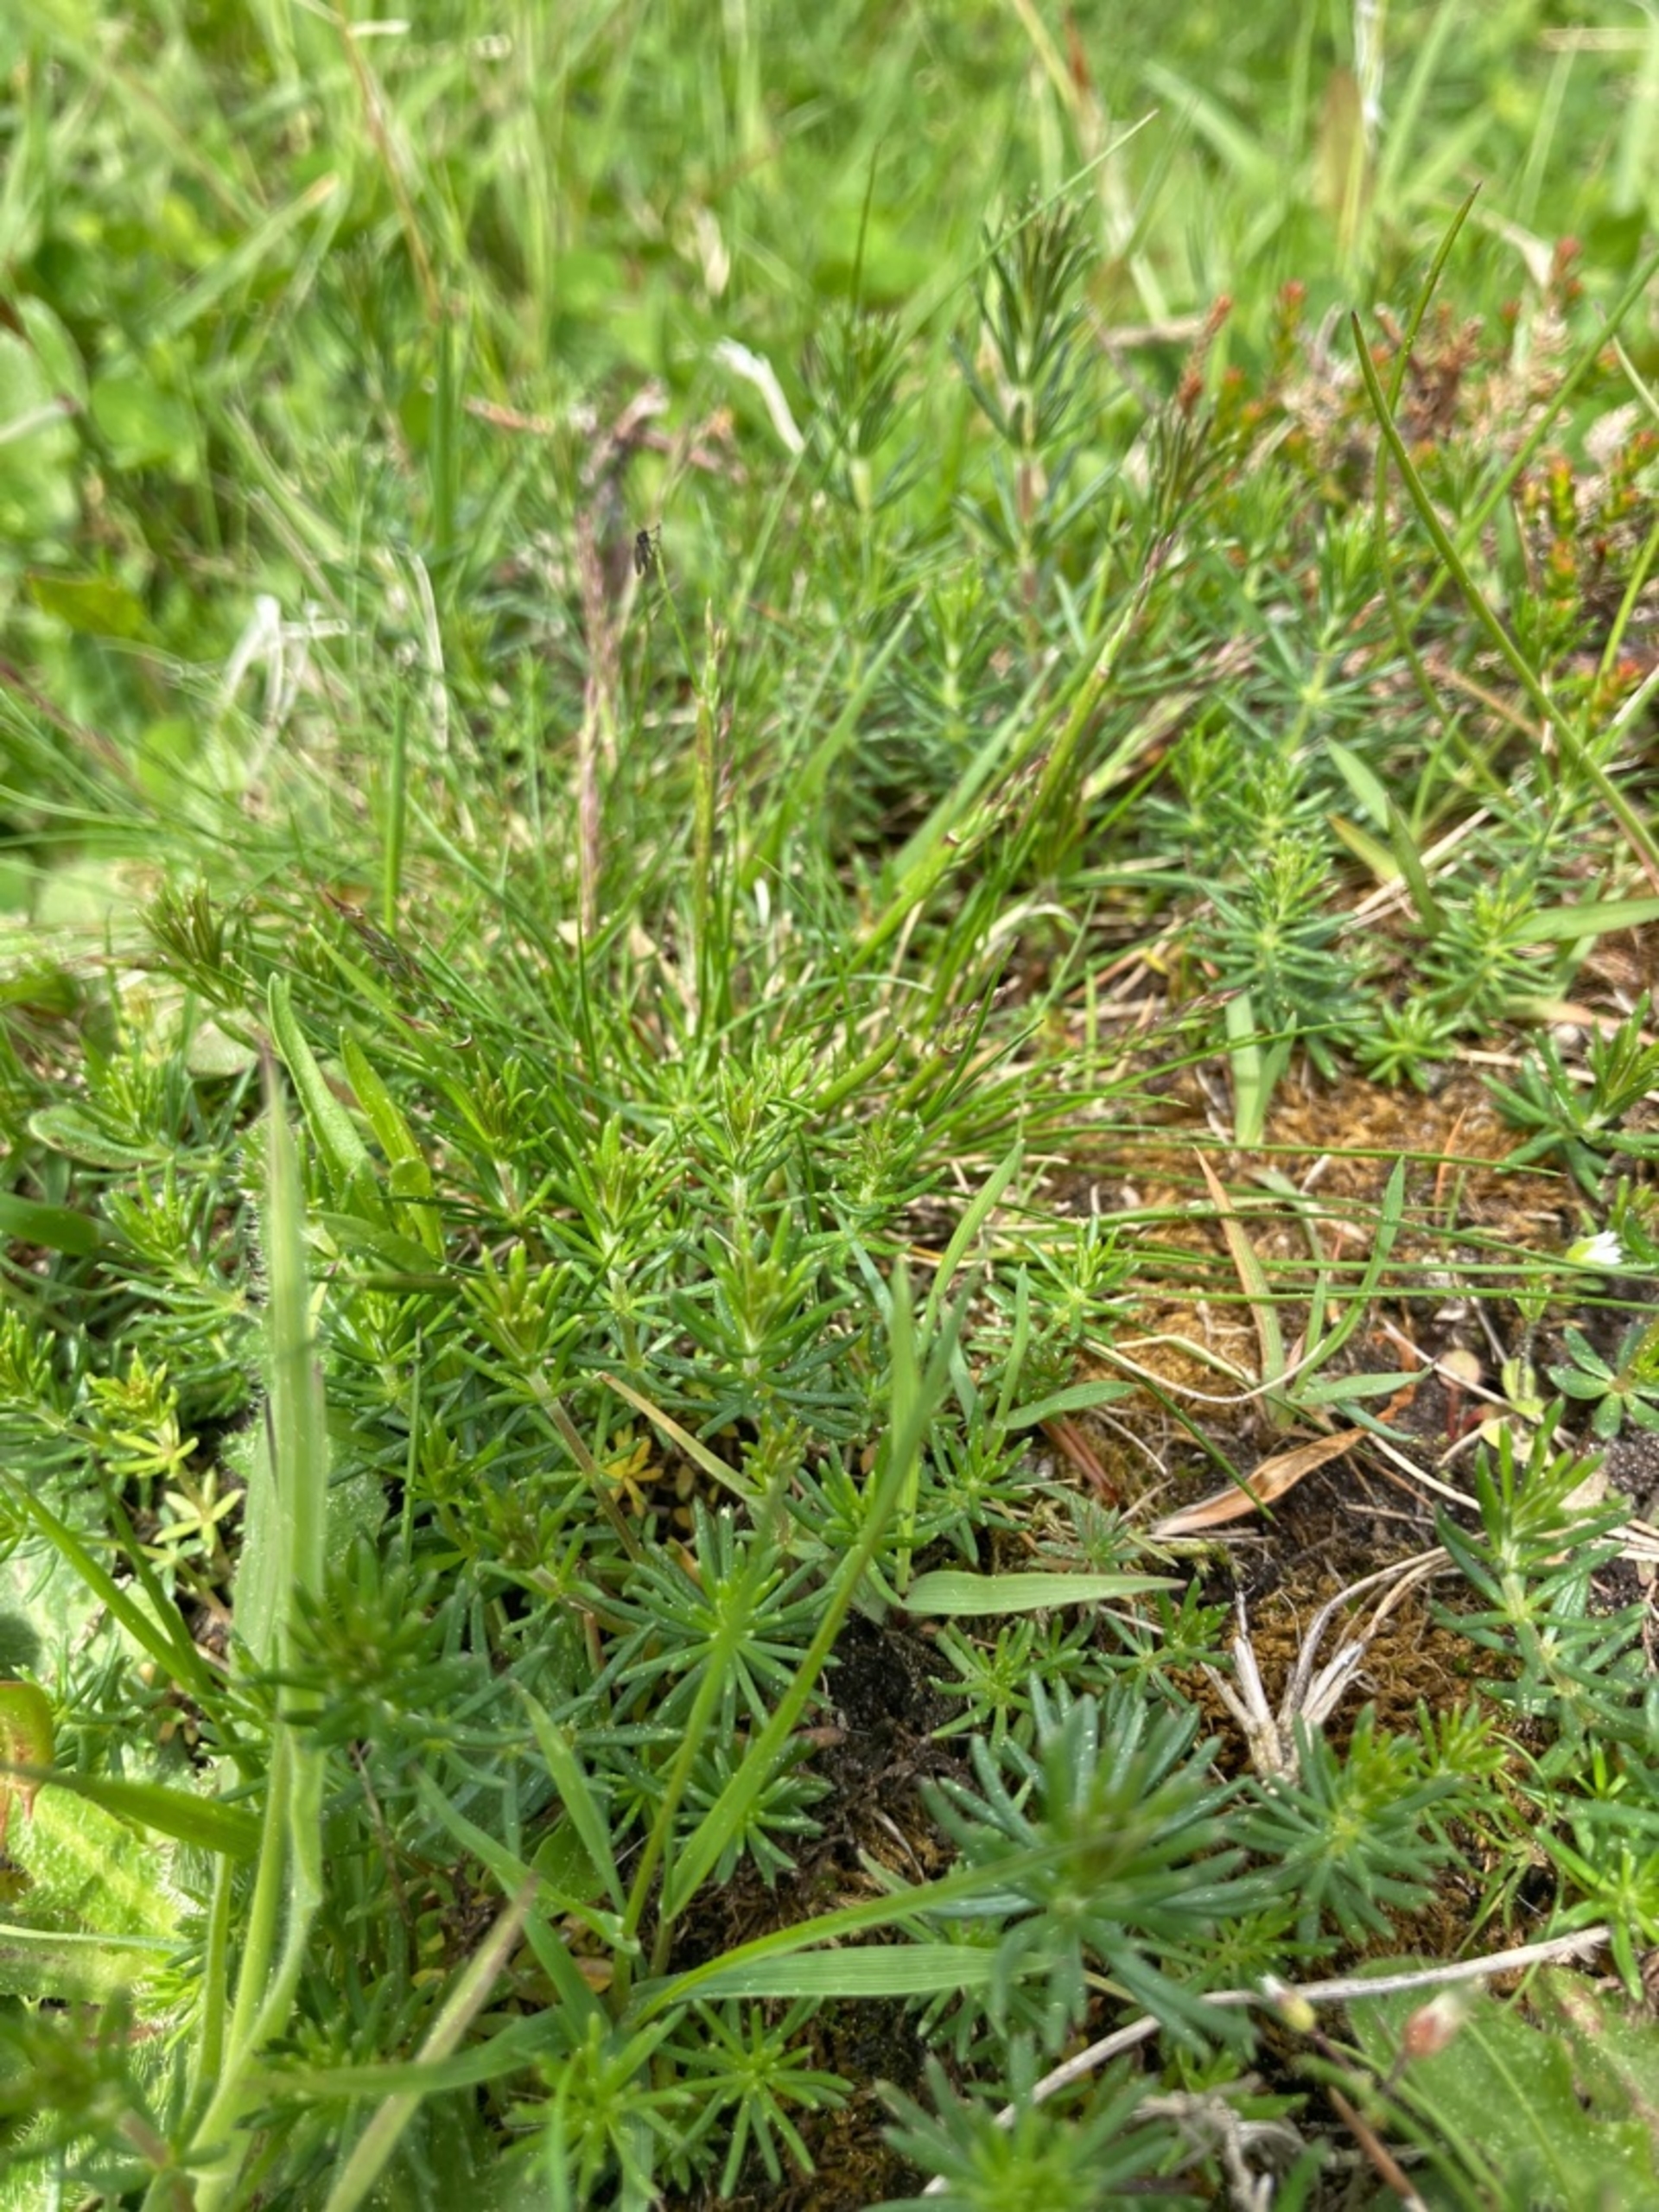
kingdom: Plantae
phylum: Tracheophyta
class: Magnoliopsida
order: Gentianales
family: Rubiaceae
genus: Galium
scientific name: Galium verum
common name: Gul snerre
